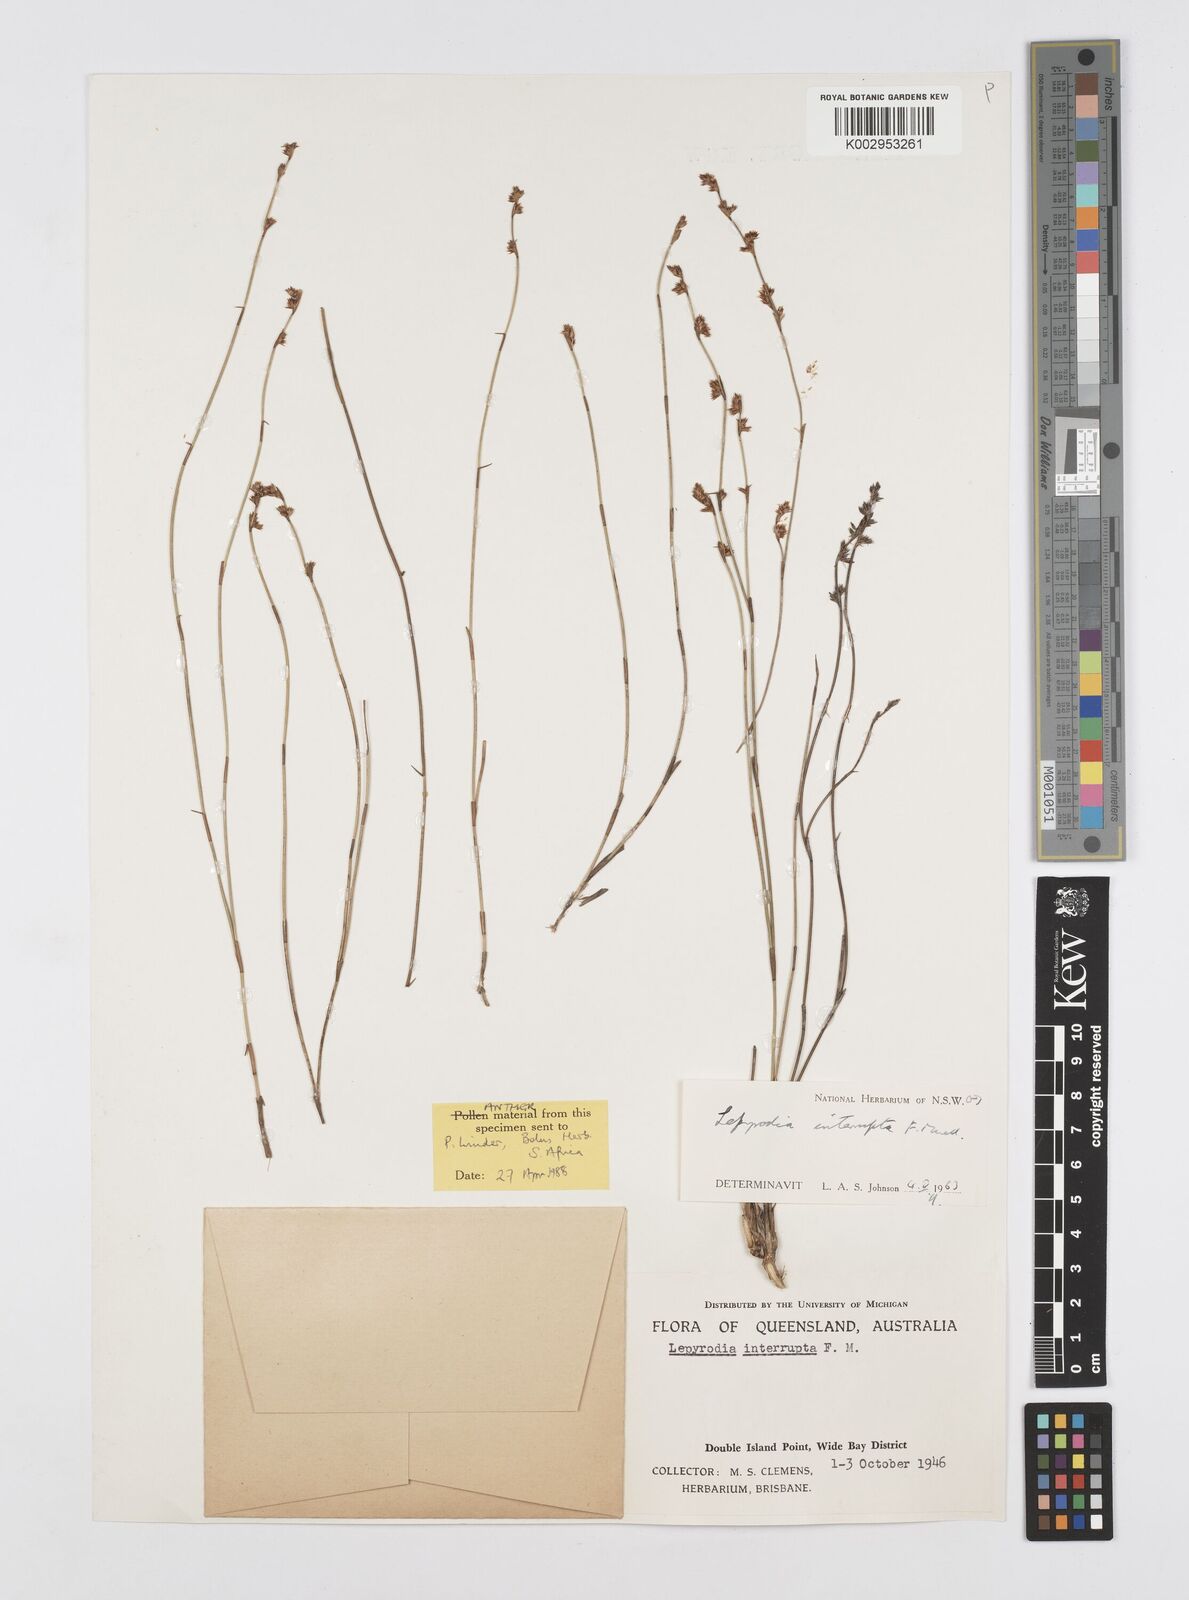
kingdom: Plantae
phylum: Tracheophyta
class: Liliopsida
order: Poales
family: Restionaceae
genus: Sporadanthus
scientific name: Sporadanthus interruptus
